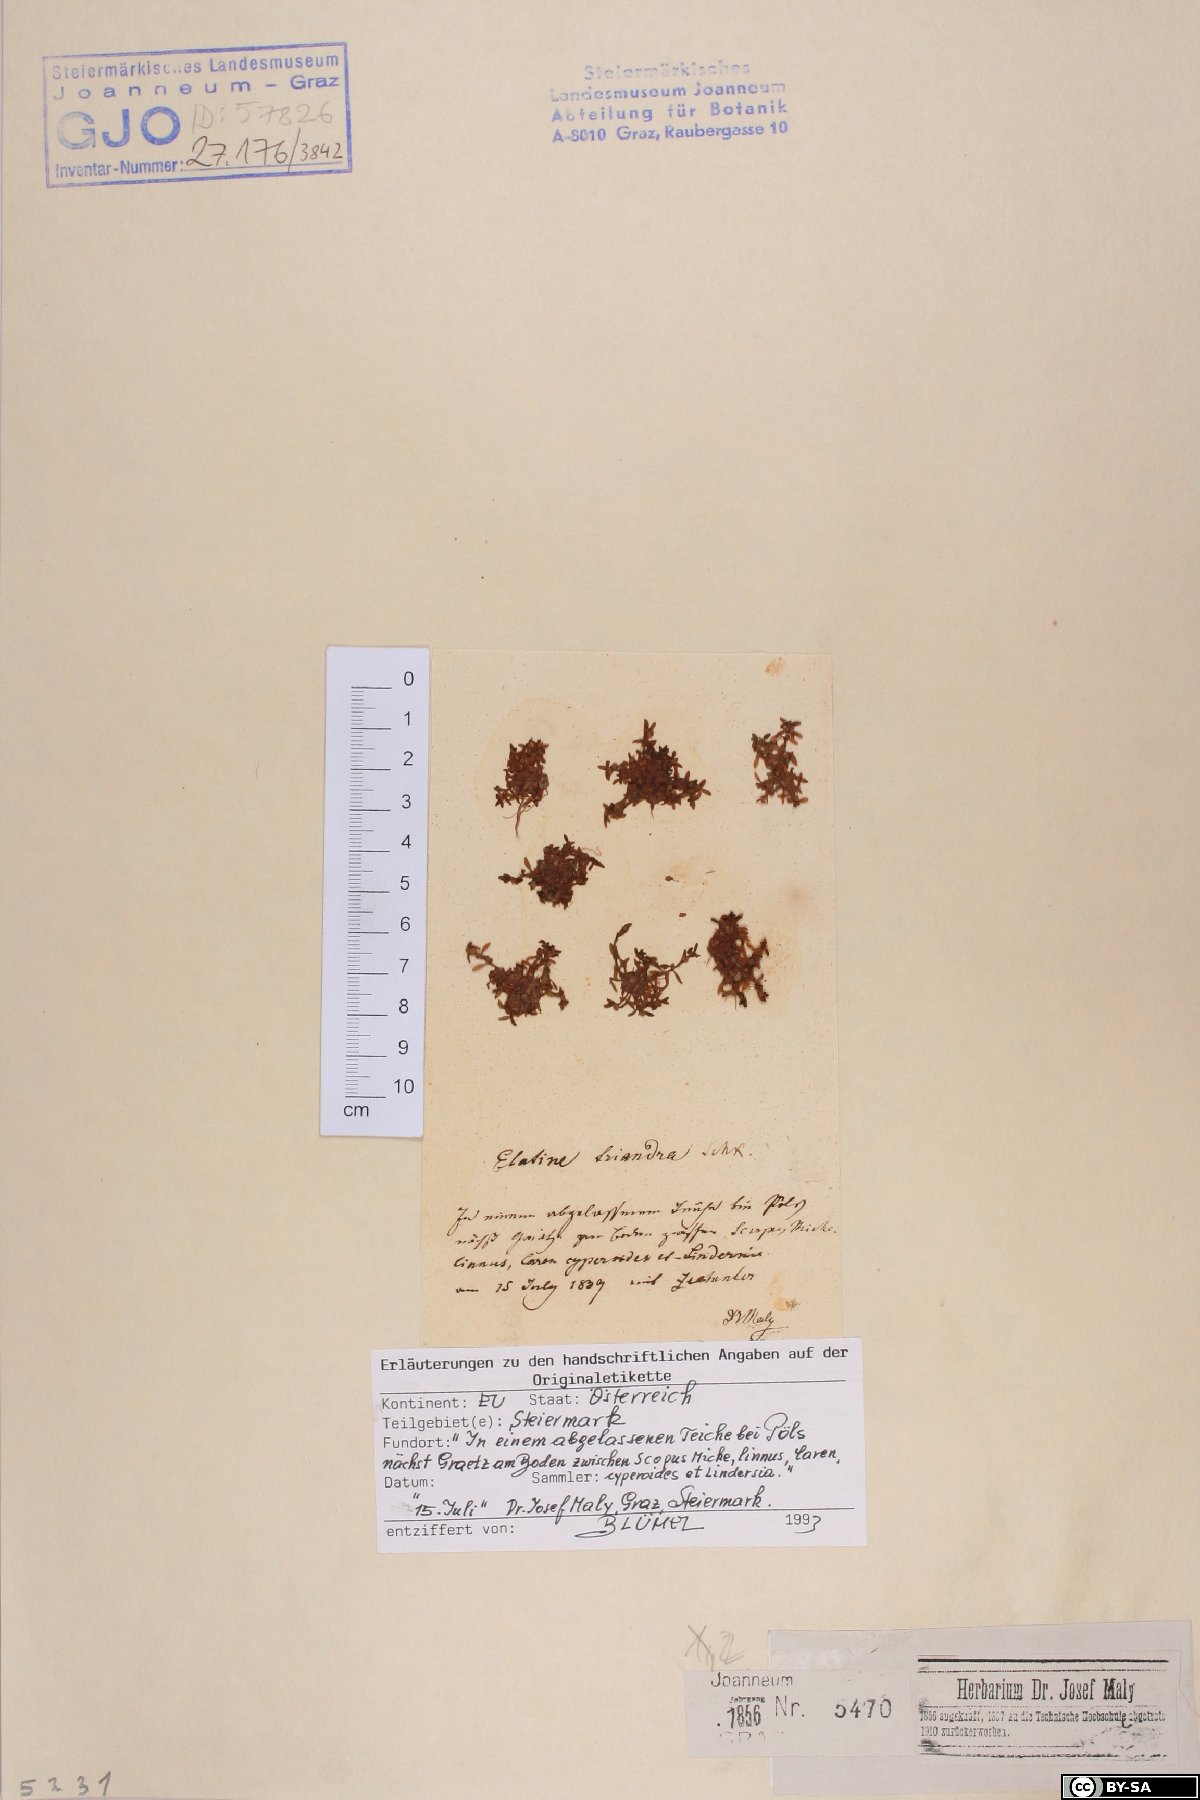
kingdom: Plantae
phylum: Tracheophyta
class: Magnoliopsida
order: Malpighiales
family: Elatinaceae
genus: Elatine
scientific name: Elatine triandra
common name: Three-stamened waterwort
